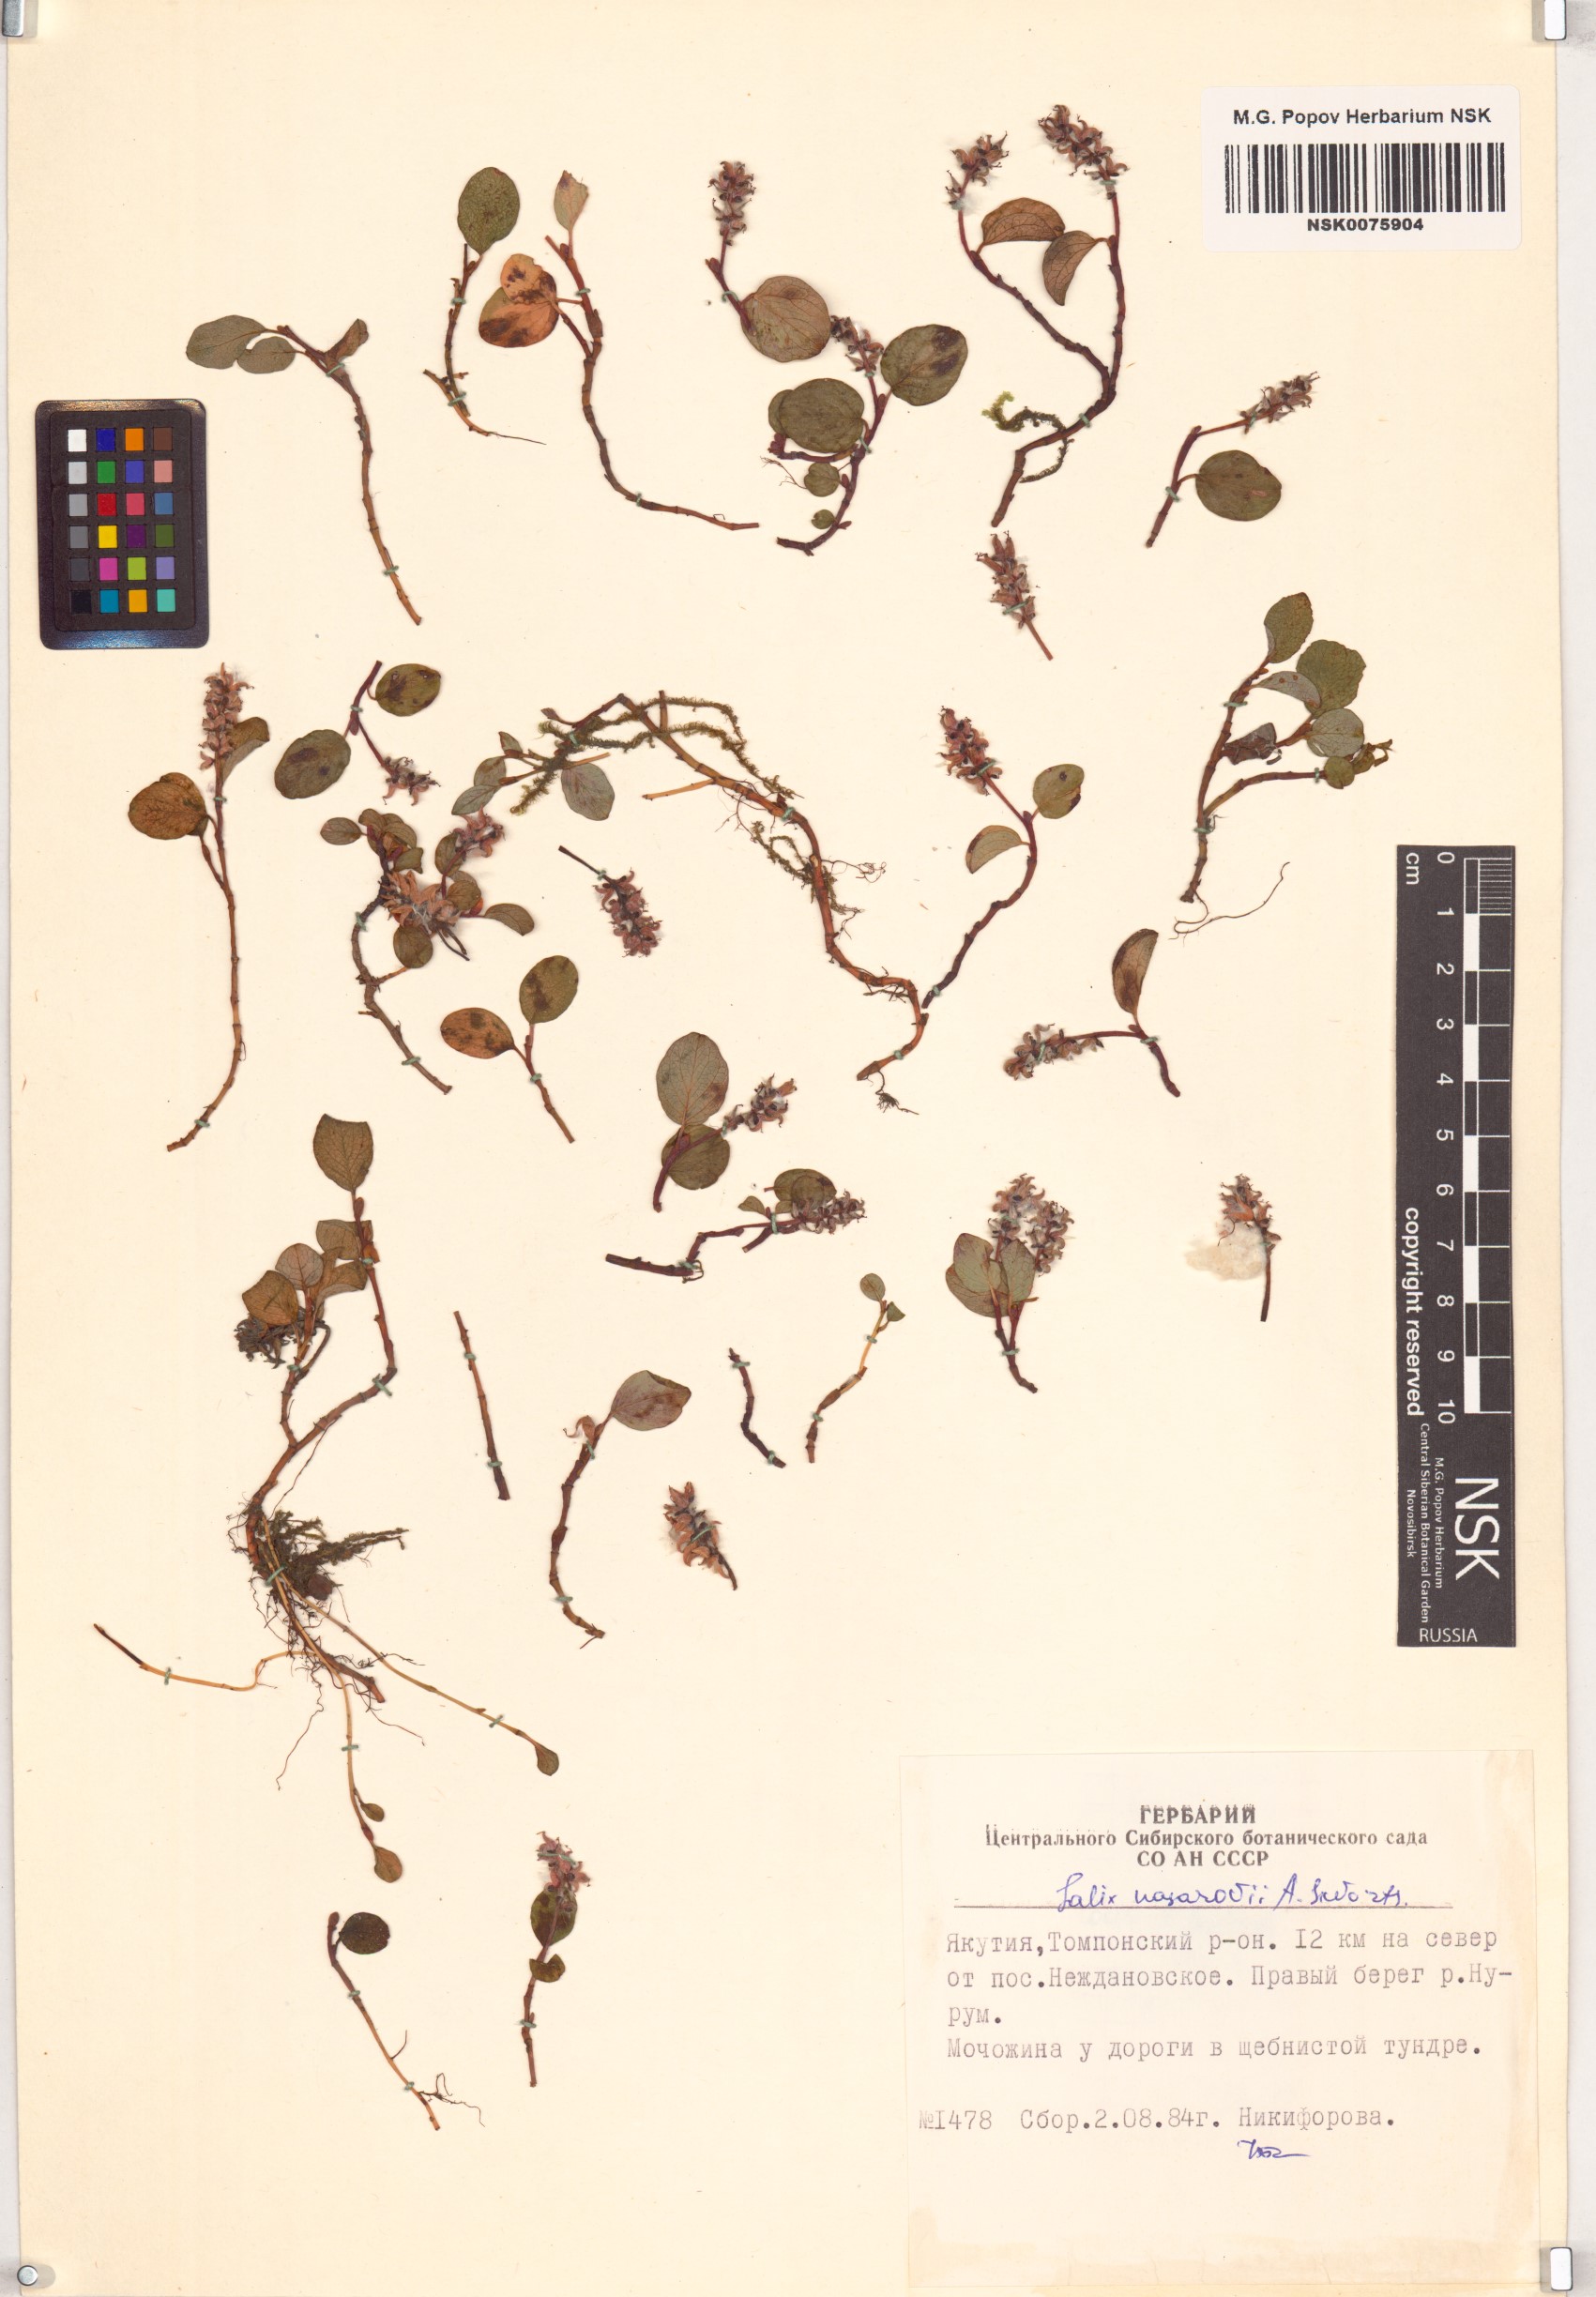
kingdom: Plantae
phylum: Tracheophyta
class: Magnoliopsida
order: Malpighiales
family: Salicaceae
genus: Salix
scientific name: Salix nasarovii
